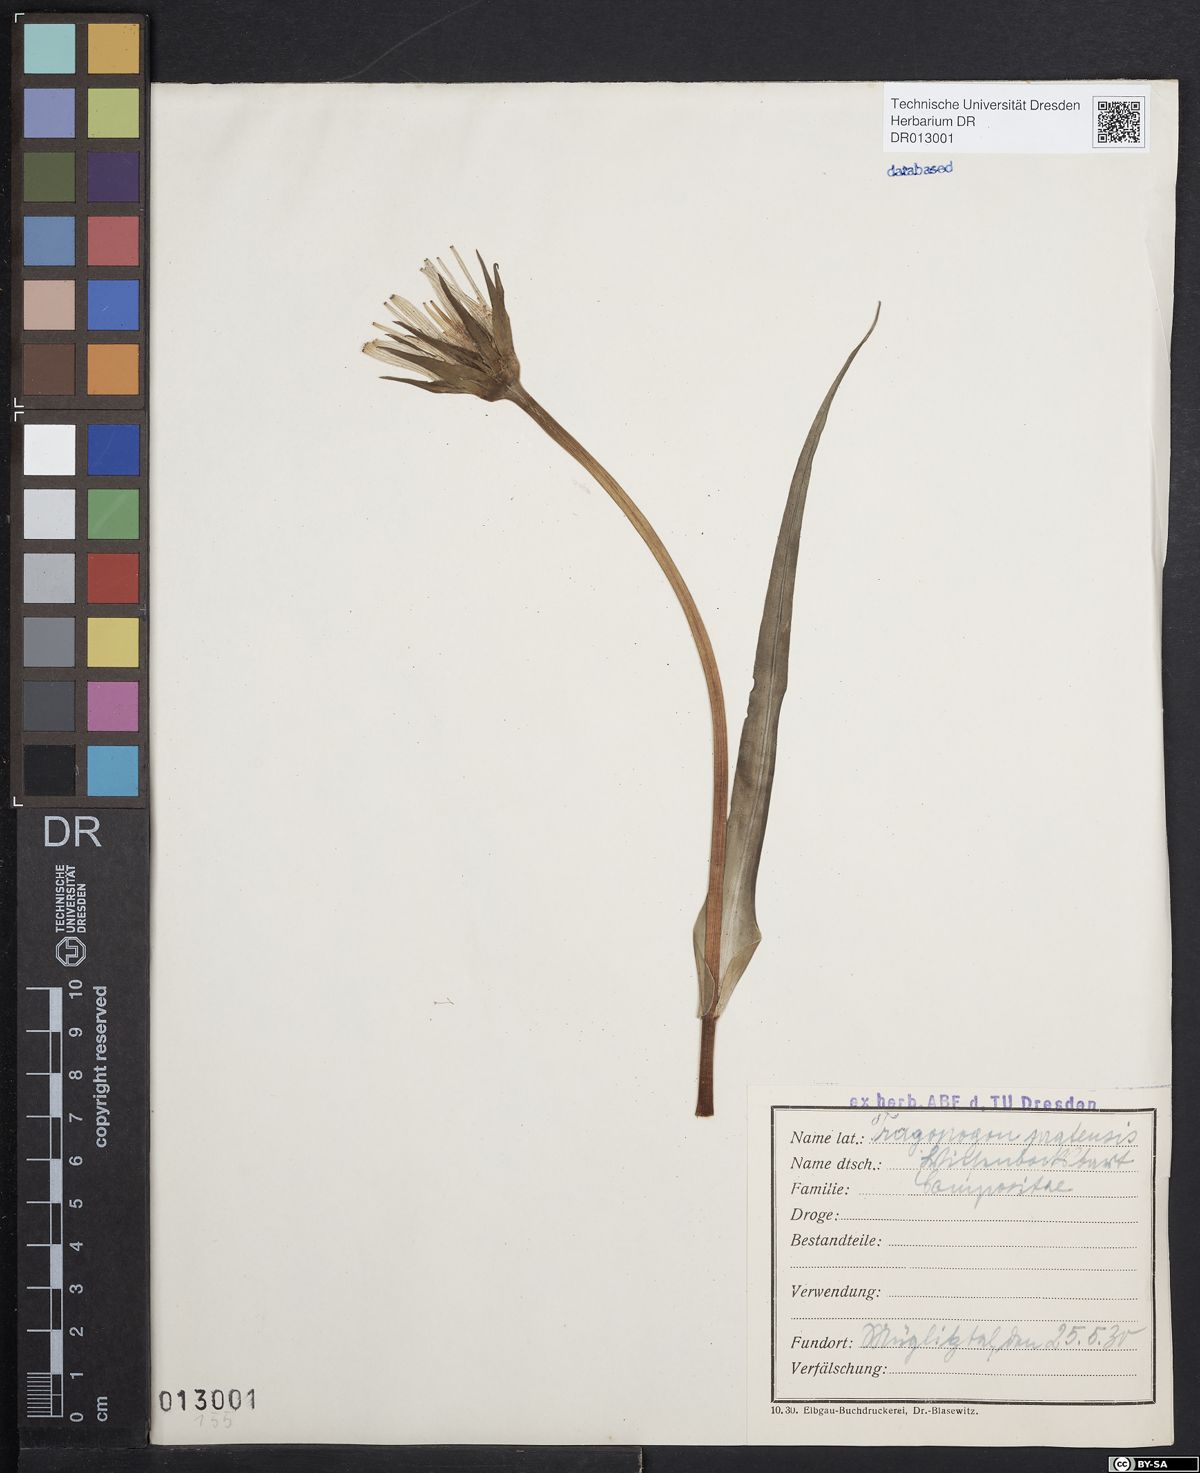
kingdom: Plantae
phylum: Tracheophyta
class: Magnoliopsida
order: Asterales
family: Asteraceae
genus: Tragopogon
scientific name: Tragopogon pratensis
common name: Goat's-beard
